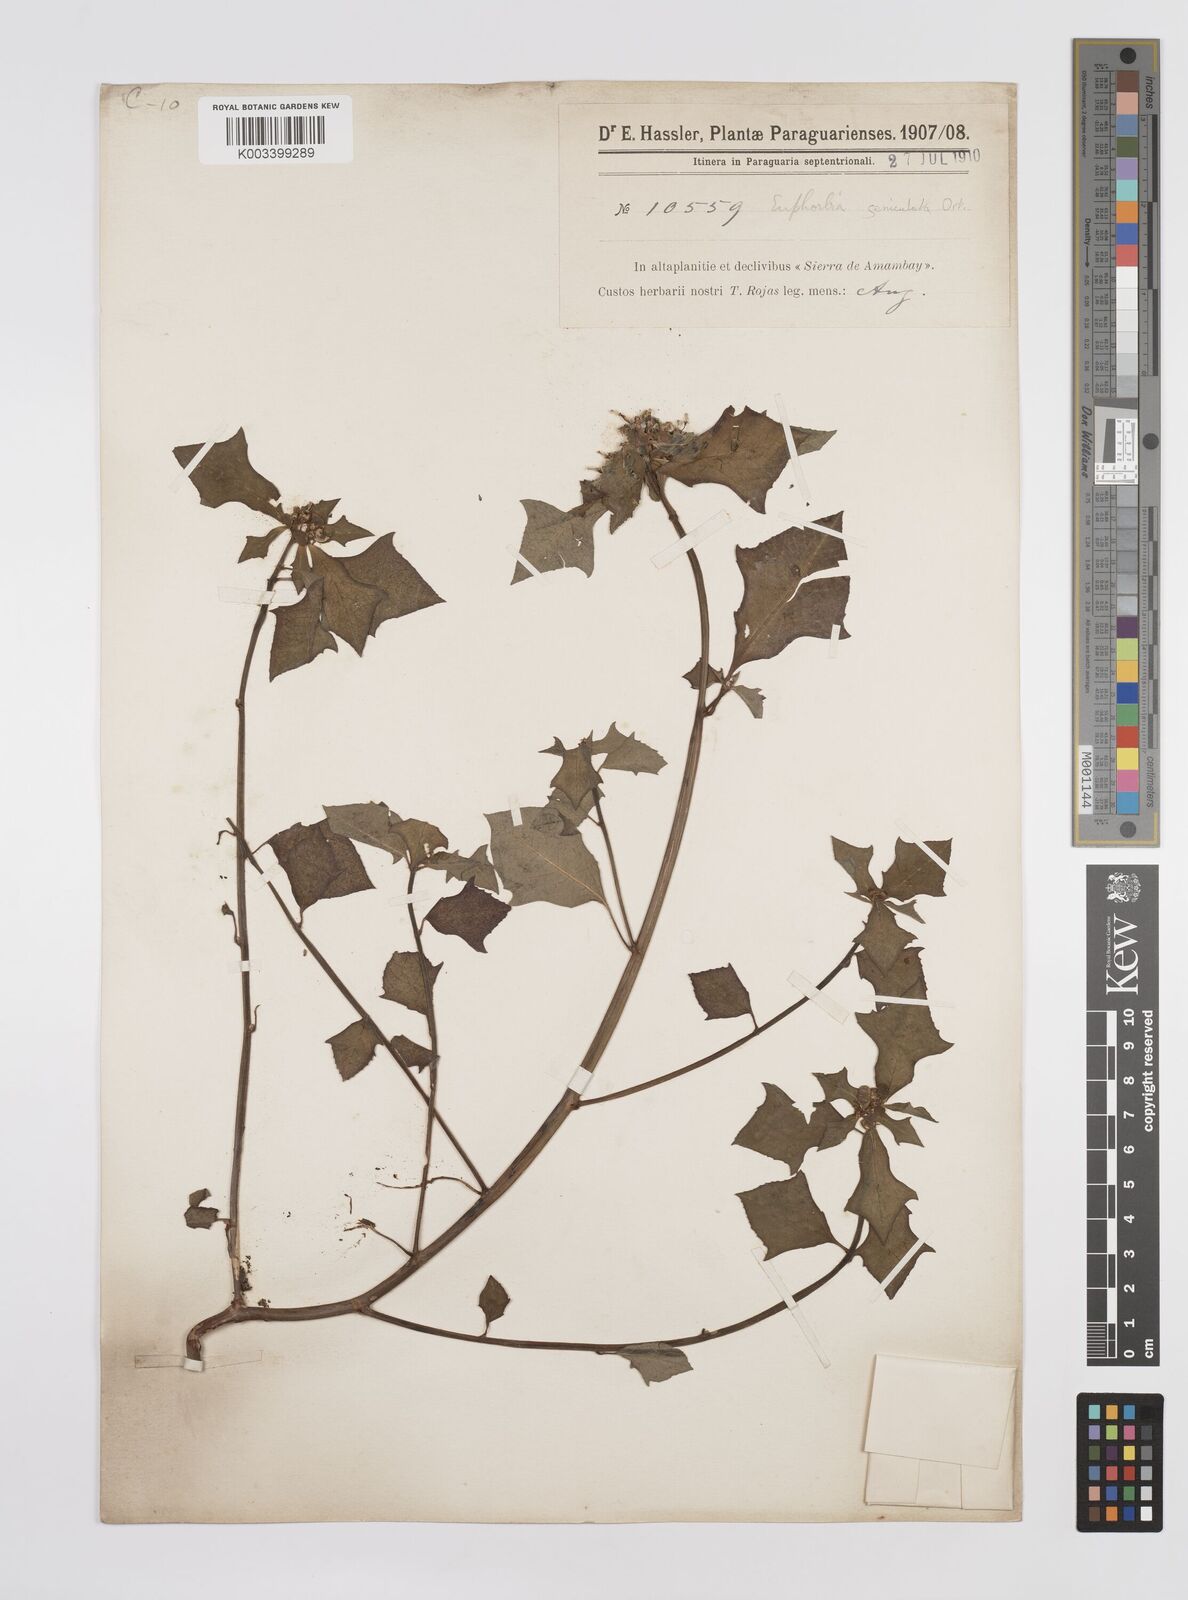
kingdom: Plantae
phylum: Tracheophyta
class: Magnoliopsida
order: Malpighiales
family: Euphorbiaceae
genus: Euphorbia
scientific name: Euphorbia heterophylla
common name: Mexican fireplant
